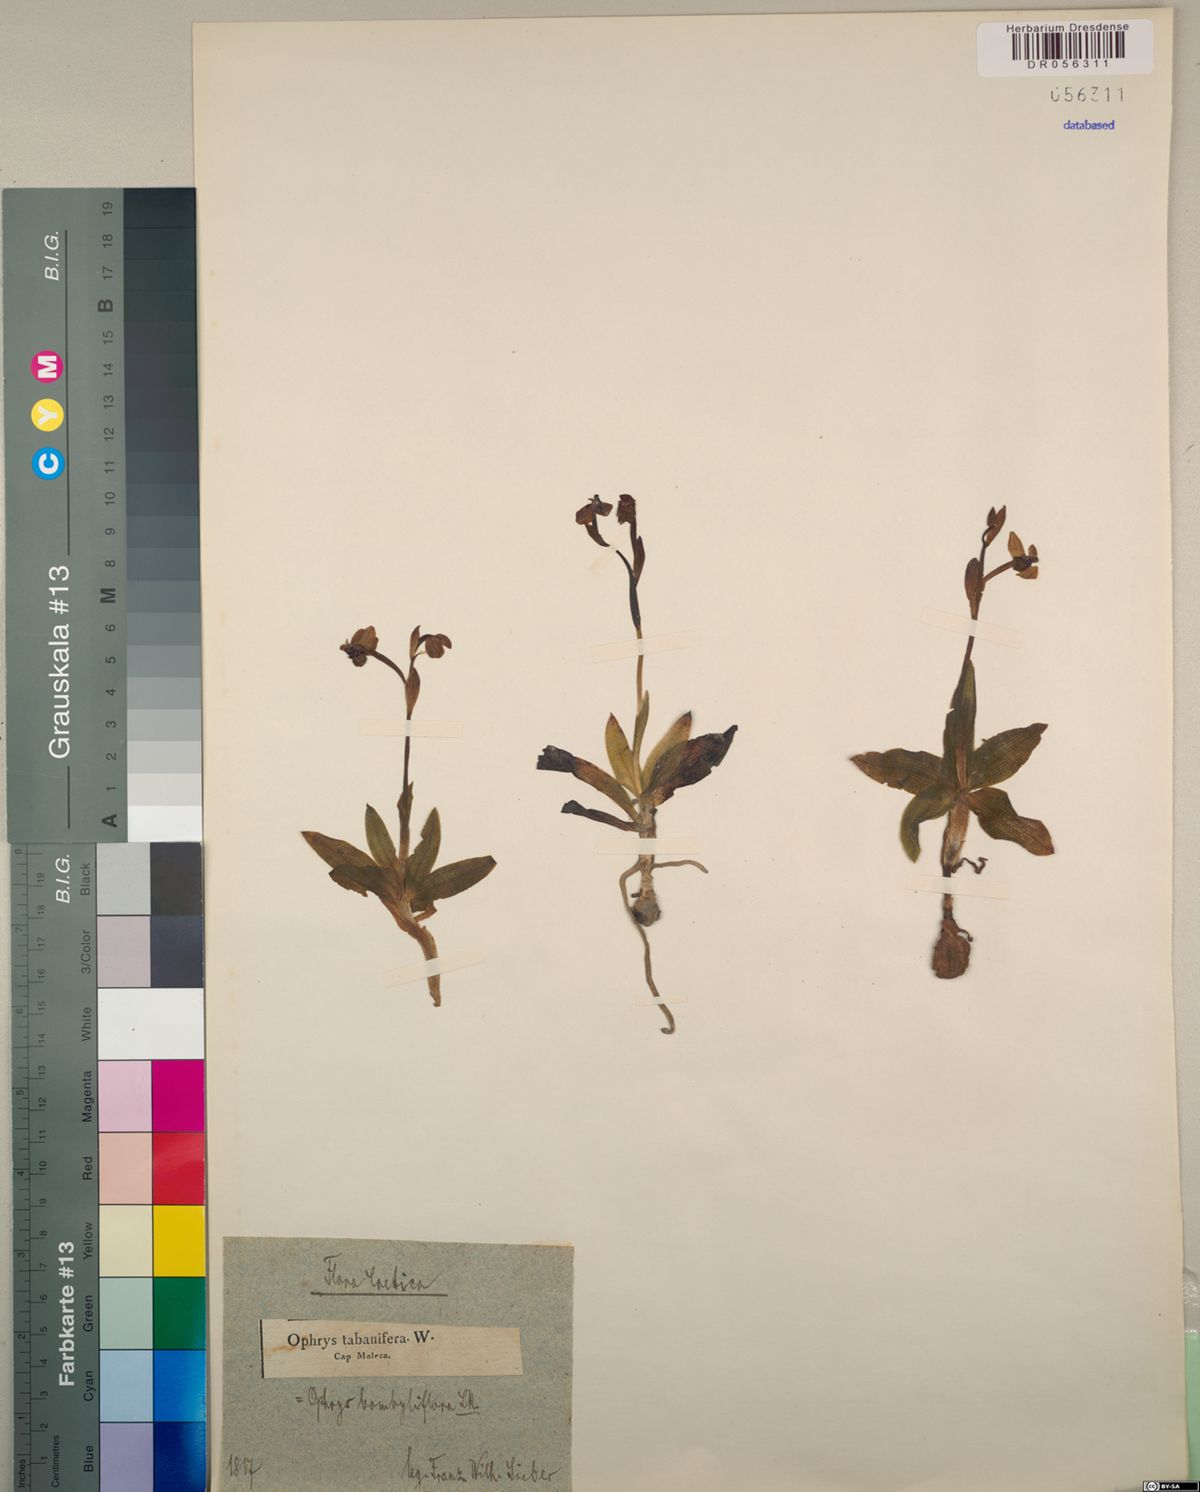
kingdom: Plantae
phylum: Tracheophyta
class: Liliopsida
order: Asparagales
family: Orchidaceae
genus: Ophrys
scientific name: Ophrys bombyliflora
